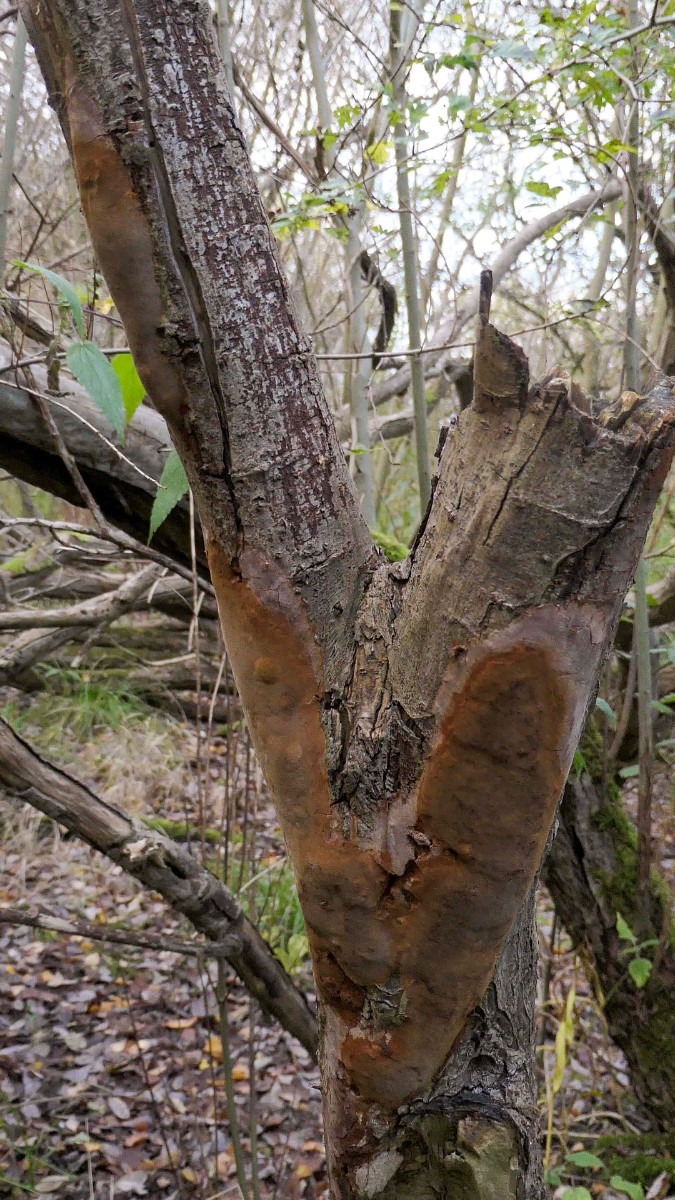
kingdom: Fungi
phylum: Basidiomycota
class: Agaricomycetes
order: Hymenochaetales
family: Hymenochaetaceae
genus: Fomitiporia
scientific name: Fomitiporia punctata
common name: pude-ildporesvamp
